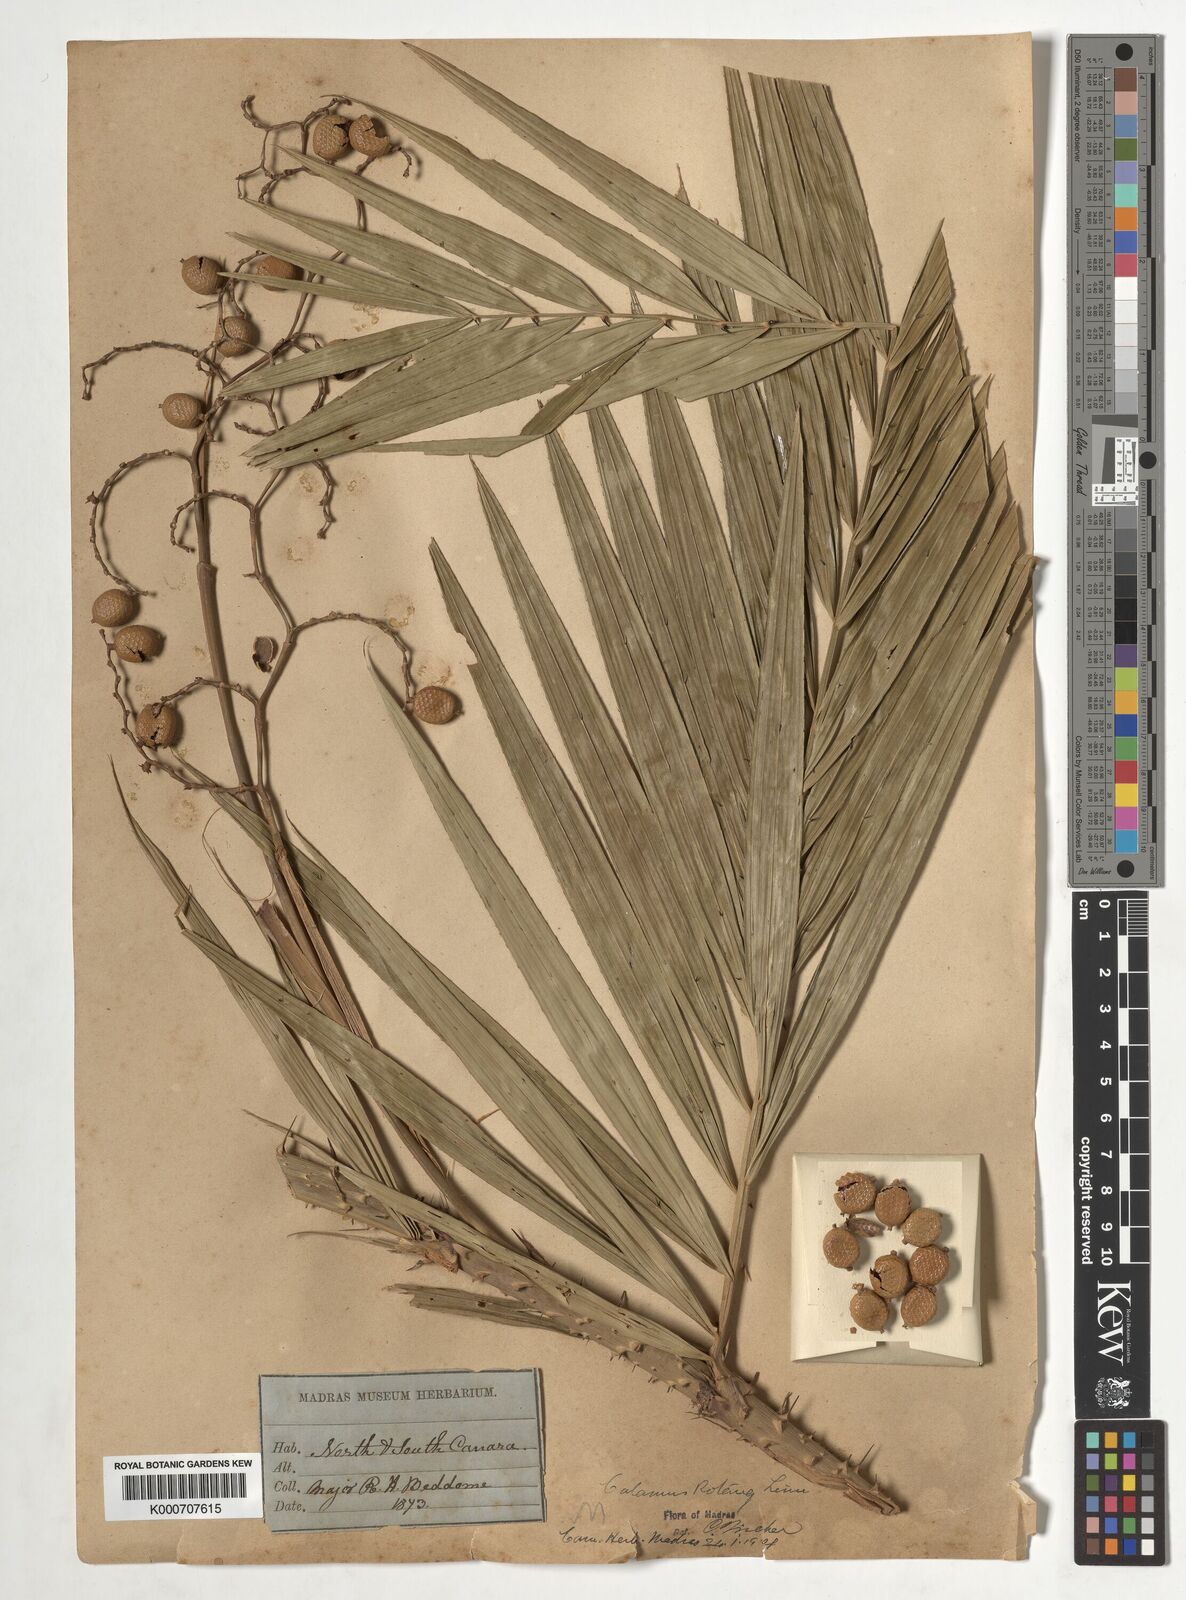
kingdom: Plantae
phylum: Tracheophyta
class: Liliopsida
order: Arecales
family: Arecaceae
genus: Calamus
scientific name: Calamus rotang
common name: Rattan cane
